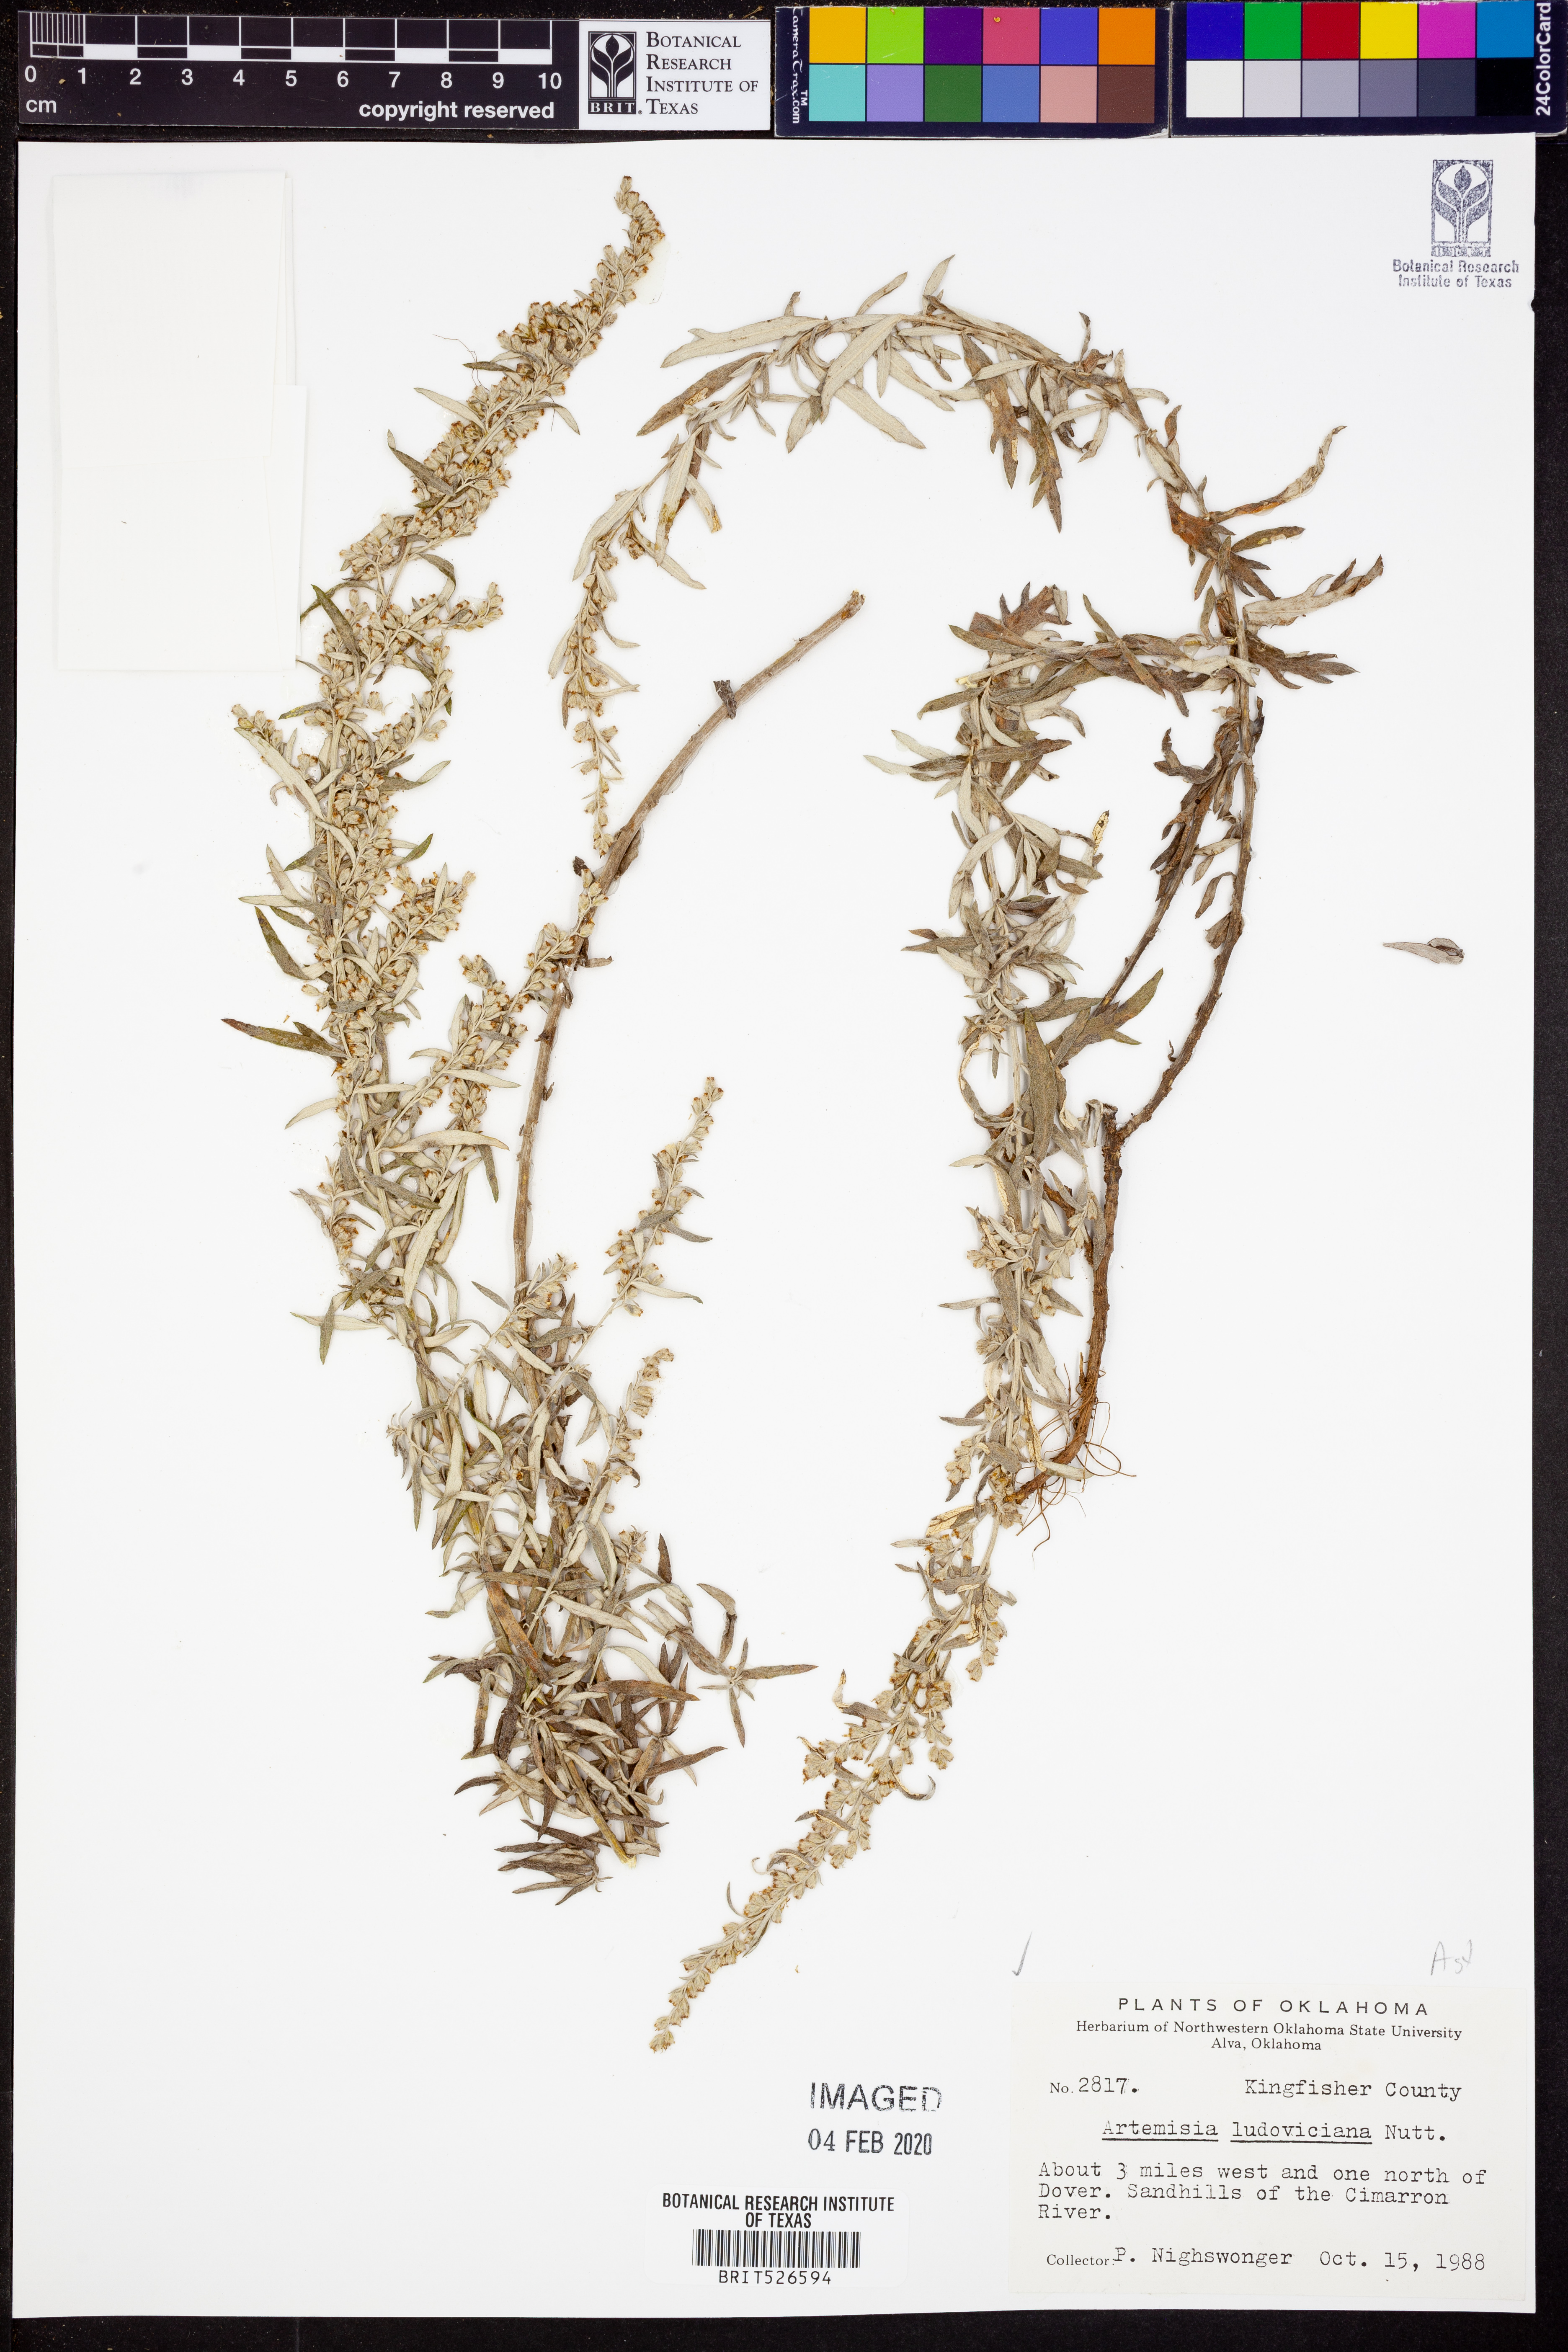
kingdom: Plantae
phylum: Tracheophyta
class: Magnoliopsida
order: Asterales
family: Asteraceae
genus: Artemisia
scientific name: Artemisia ludoviciana
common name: Western mugwort
